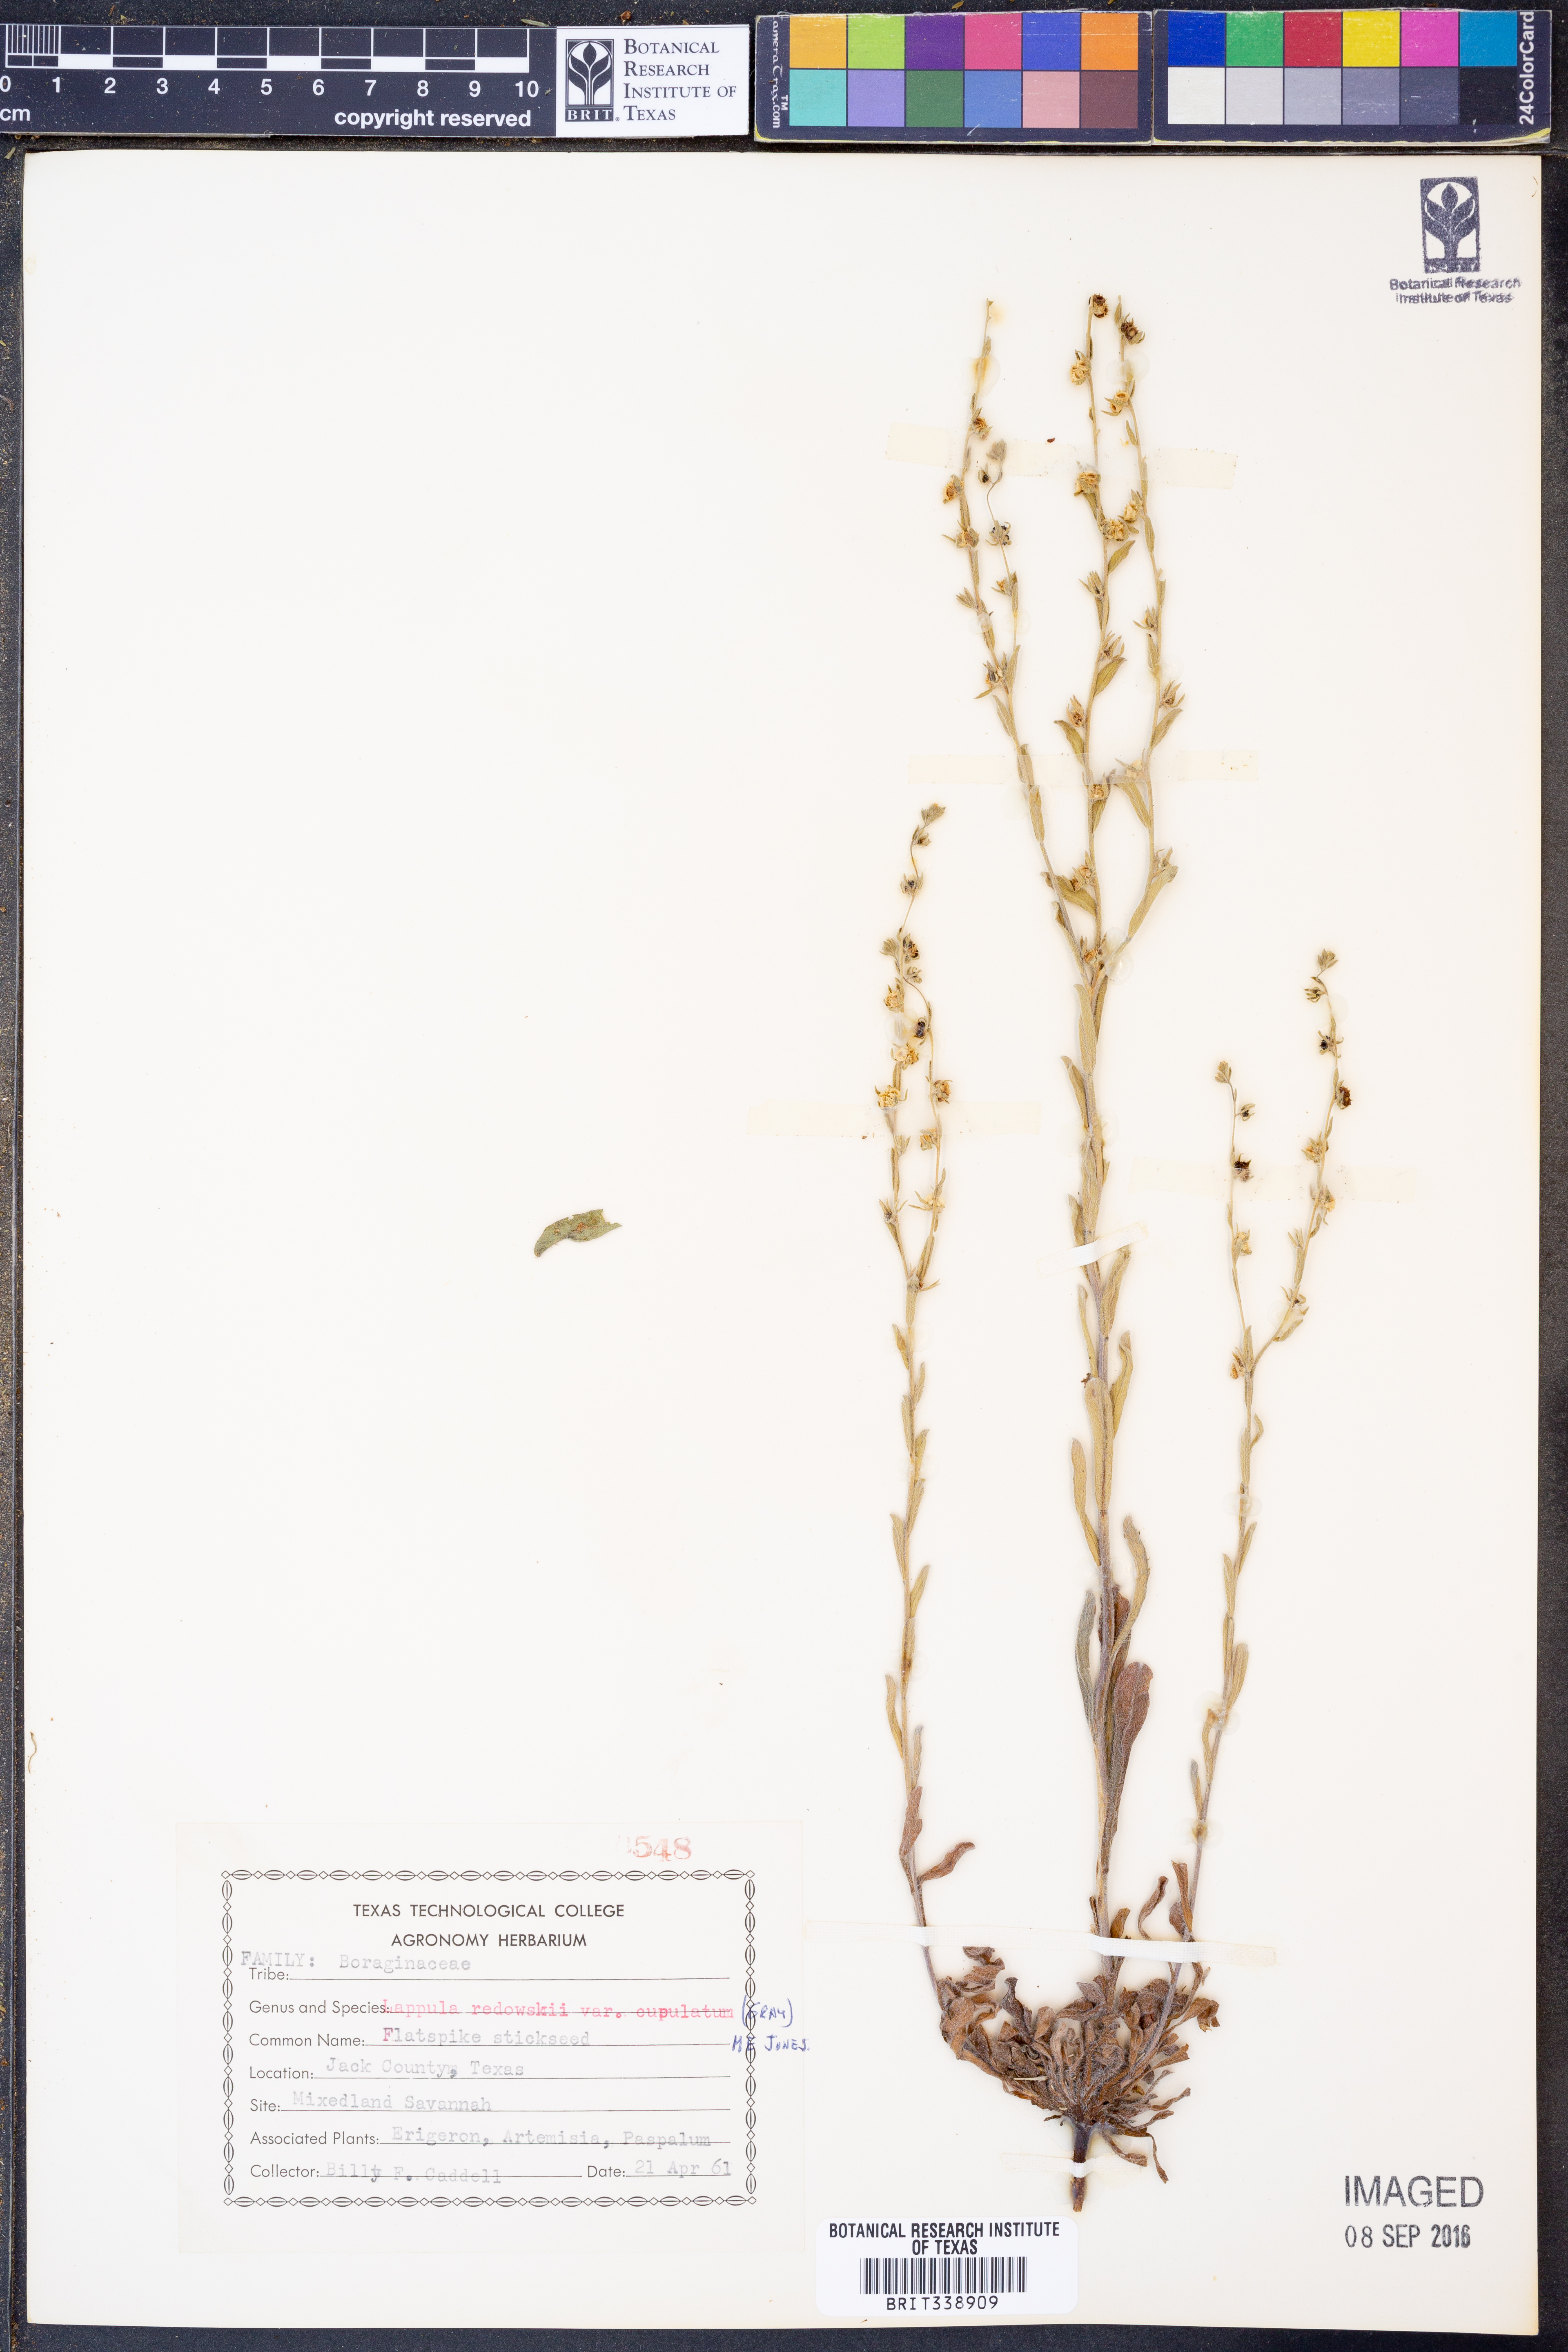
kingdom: Plantae
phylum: Tracheophyta
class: Magnoliopsida
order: Boraginales
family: Boraginaceae
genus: Lappula
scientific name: Lappula occidentalis
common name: Western stickseed
